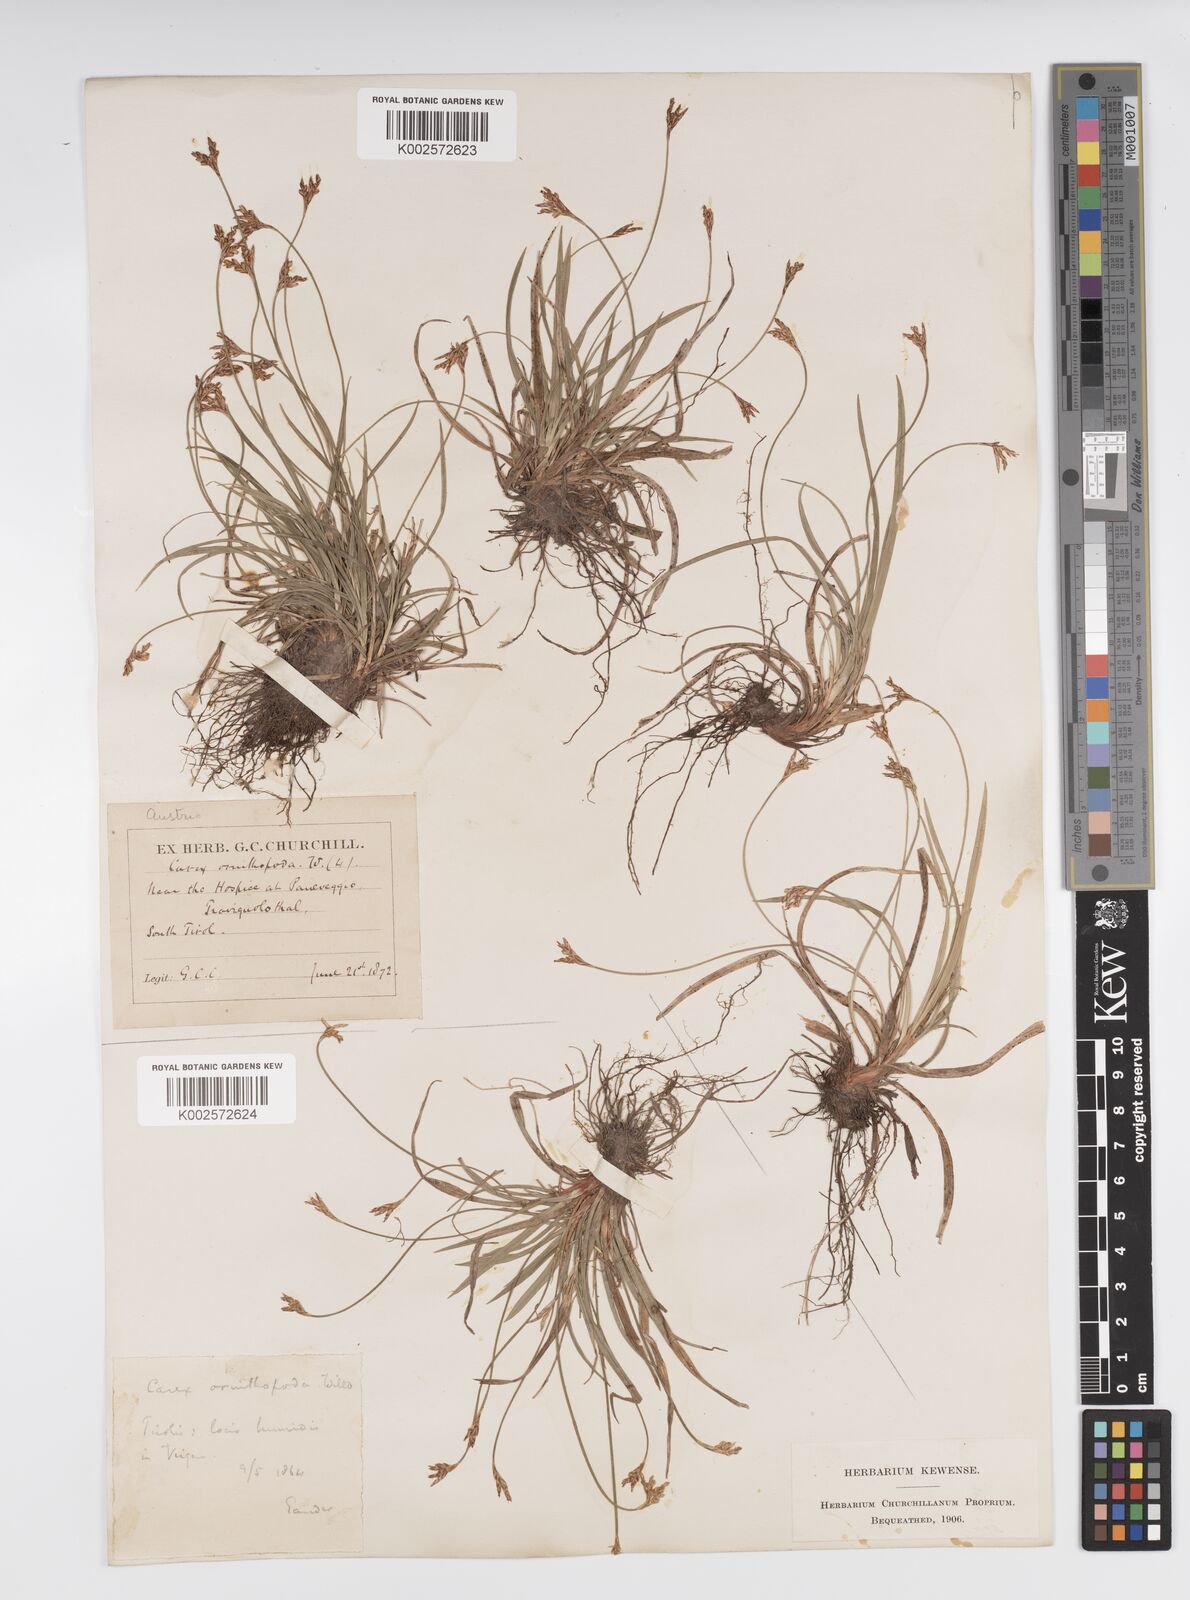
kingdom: Plantae
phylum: Tracheophyta
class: Liliopsida
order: Poales
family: Cyperaceae
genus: Carex
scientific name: Carex ornithopoda
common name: Bird's-foot sedge
